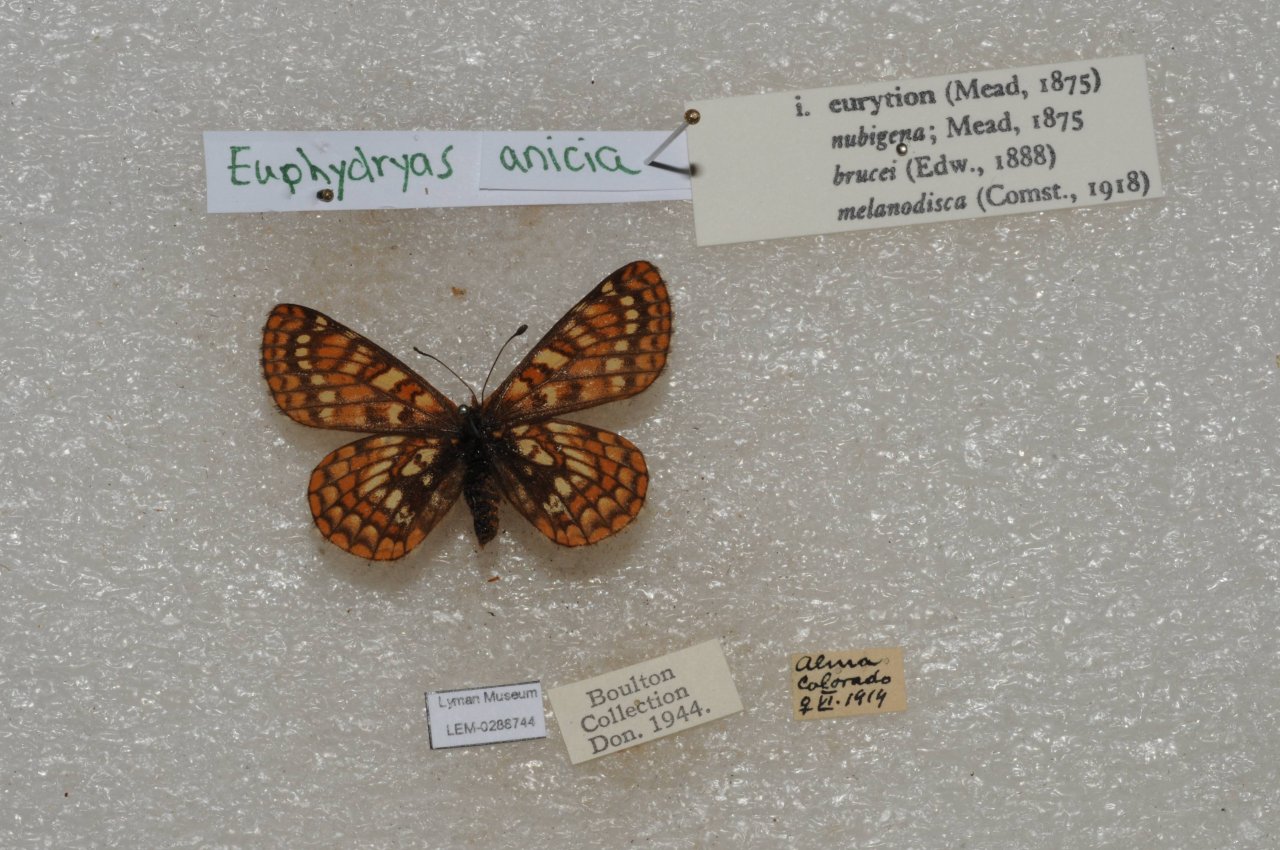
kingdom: Animalia
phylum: Arthropoda
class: Insecta
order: Lepidoptera
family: Nymphalidae
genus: Occidryas
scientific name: Occidryas anicia
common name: Anicia Checkerspot
